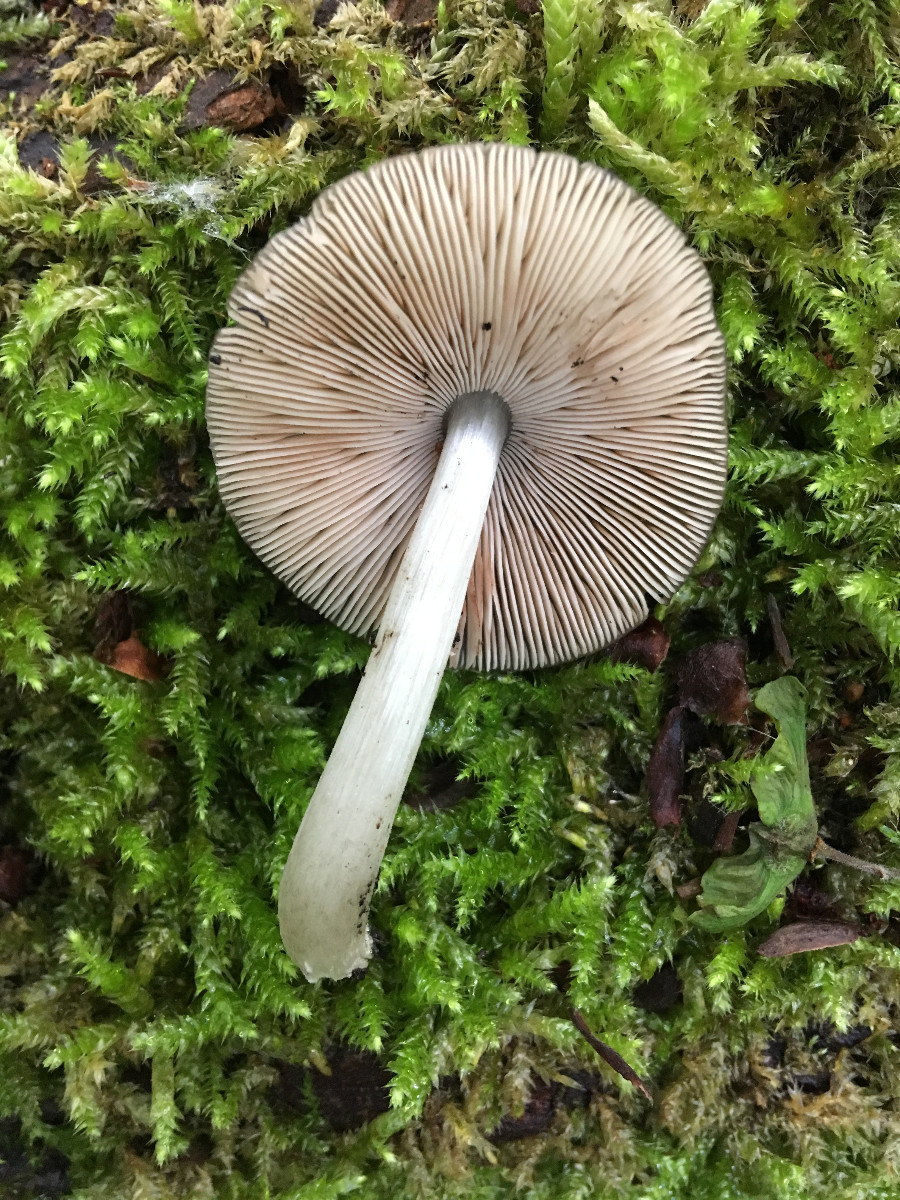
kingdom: Fungi
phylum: Basidiomycota
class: Agaricomycetes
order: Agaricales
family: Pluteaceae
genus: Pluteus
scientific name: Pluteus
